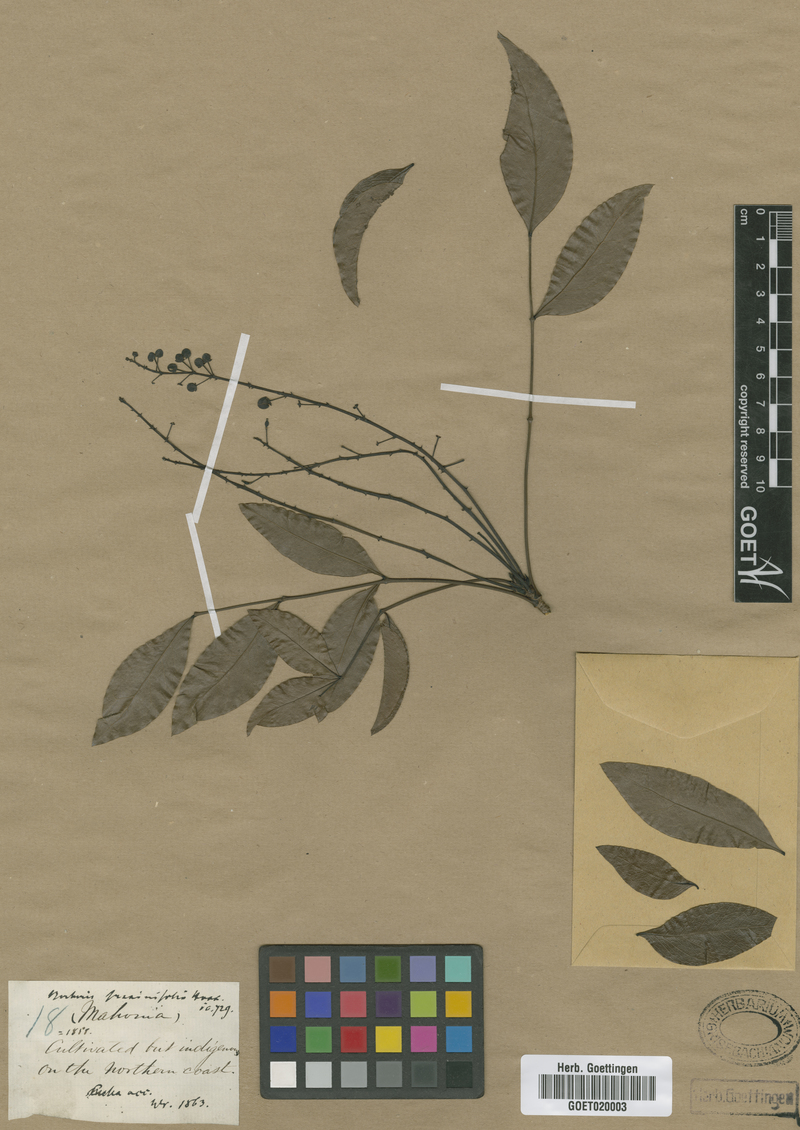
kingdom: Plantae
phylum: Tracheophyta
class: Magnoliopsida
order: Ranunculales
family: Berberidaceae
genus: Mahonia
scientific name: Mahonia tenuifolia
